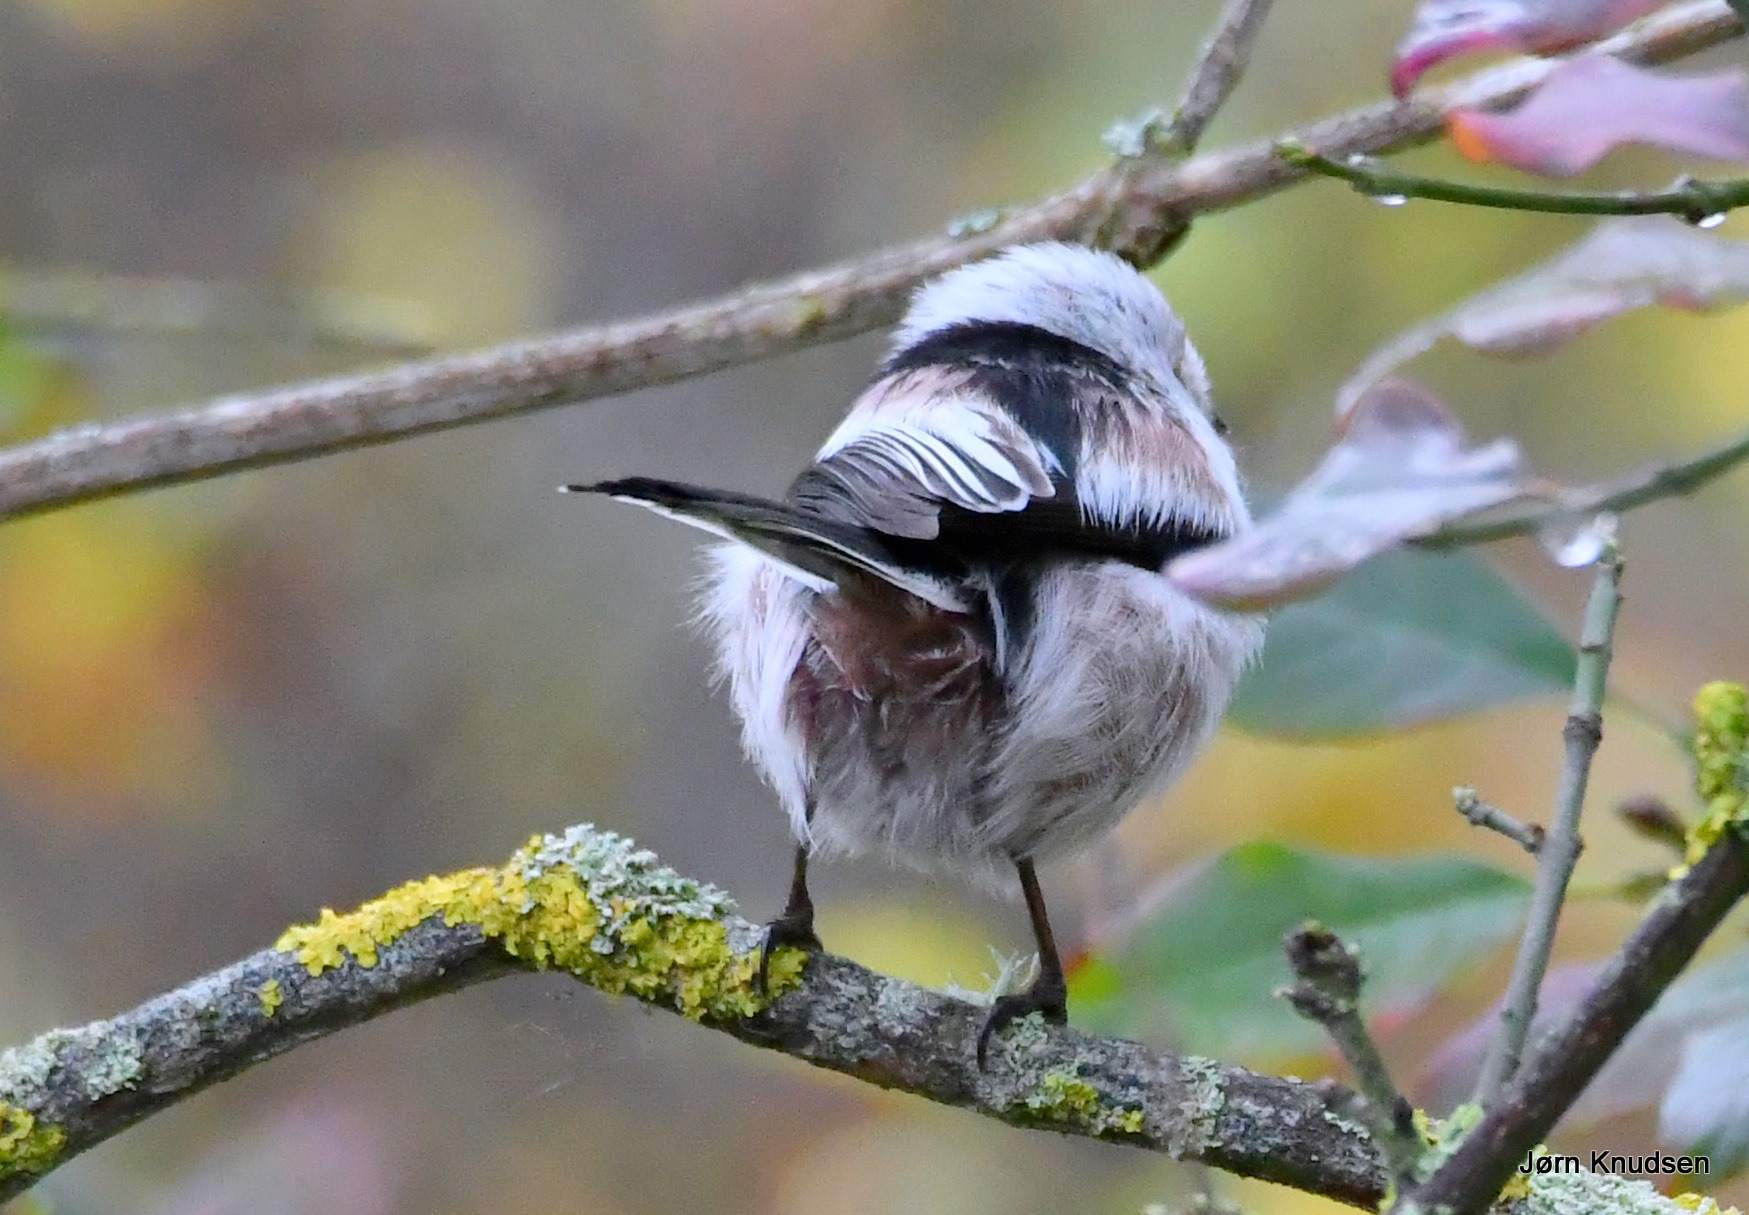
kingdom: Animalia
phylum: Chordata
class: Aves
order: Passeriformes
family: Aegithalidae
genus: Aegithalos
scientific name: Aegithalos caudatus
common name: Halemejse
